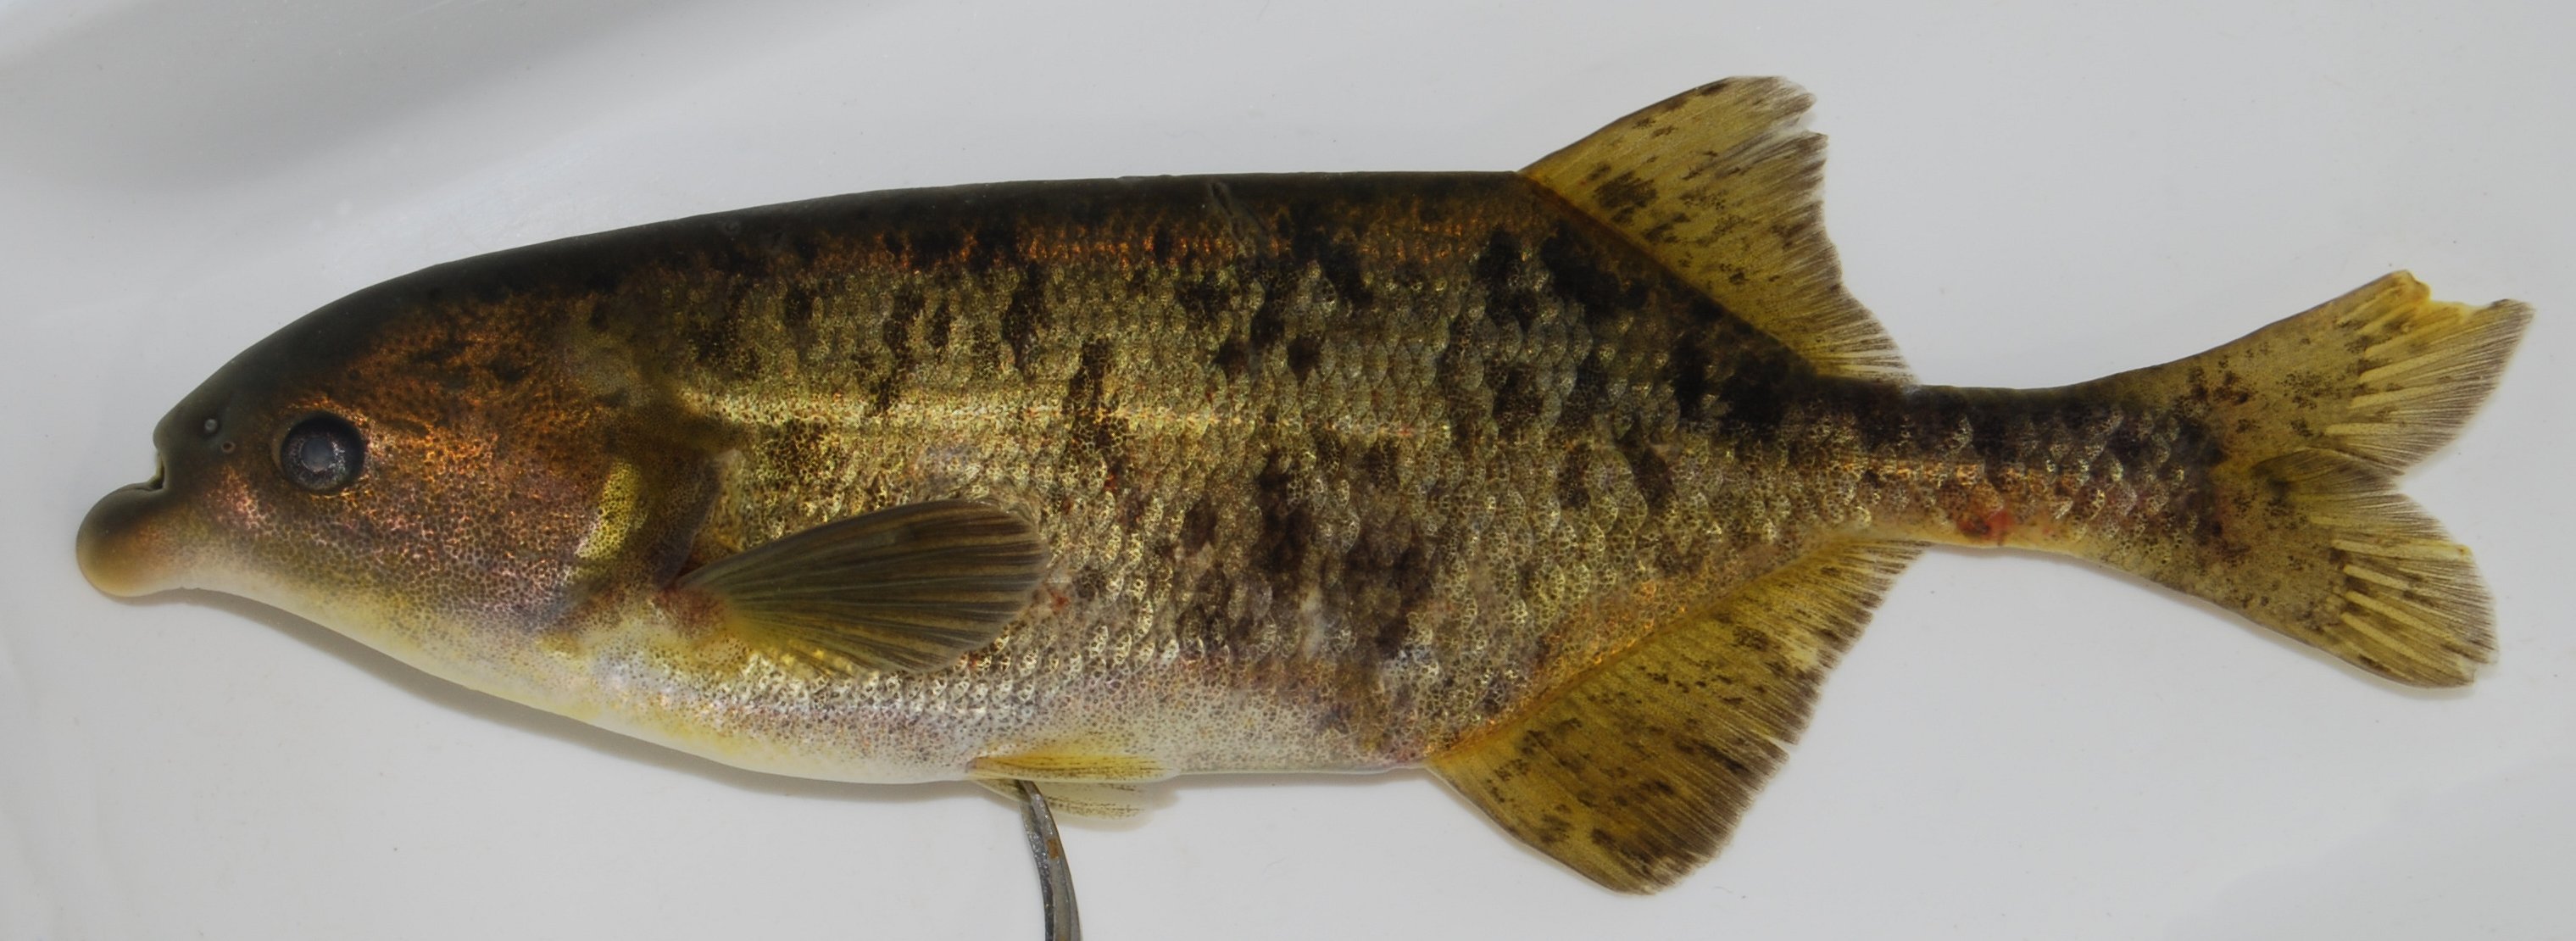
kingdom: Animalia
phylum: Chordata
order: Osteoglossiformes
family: Mormyridae
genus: Marcusenius
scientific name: Marcusenius altisambesi
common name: Bulldog
